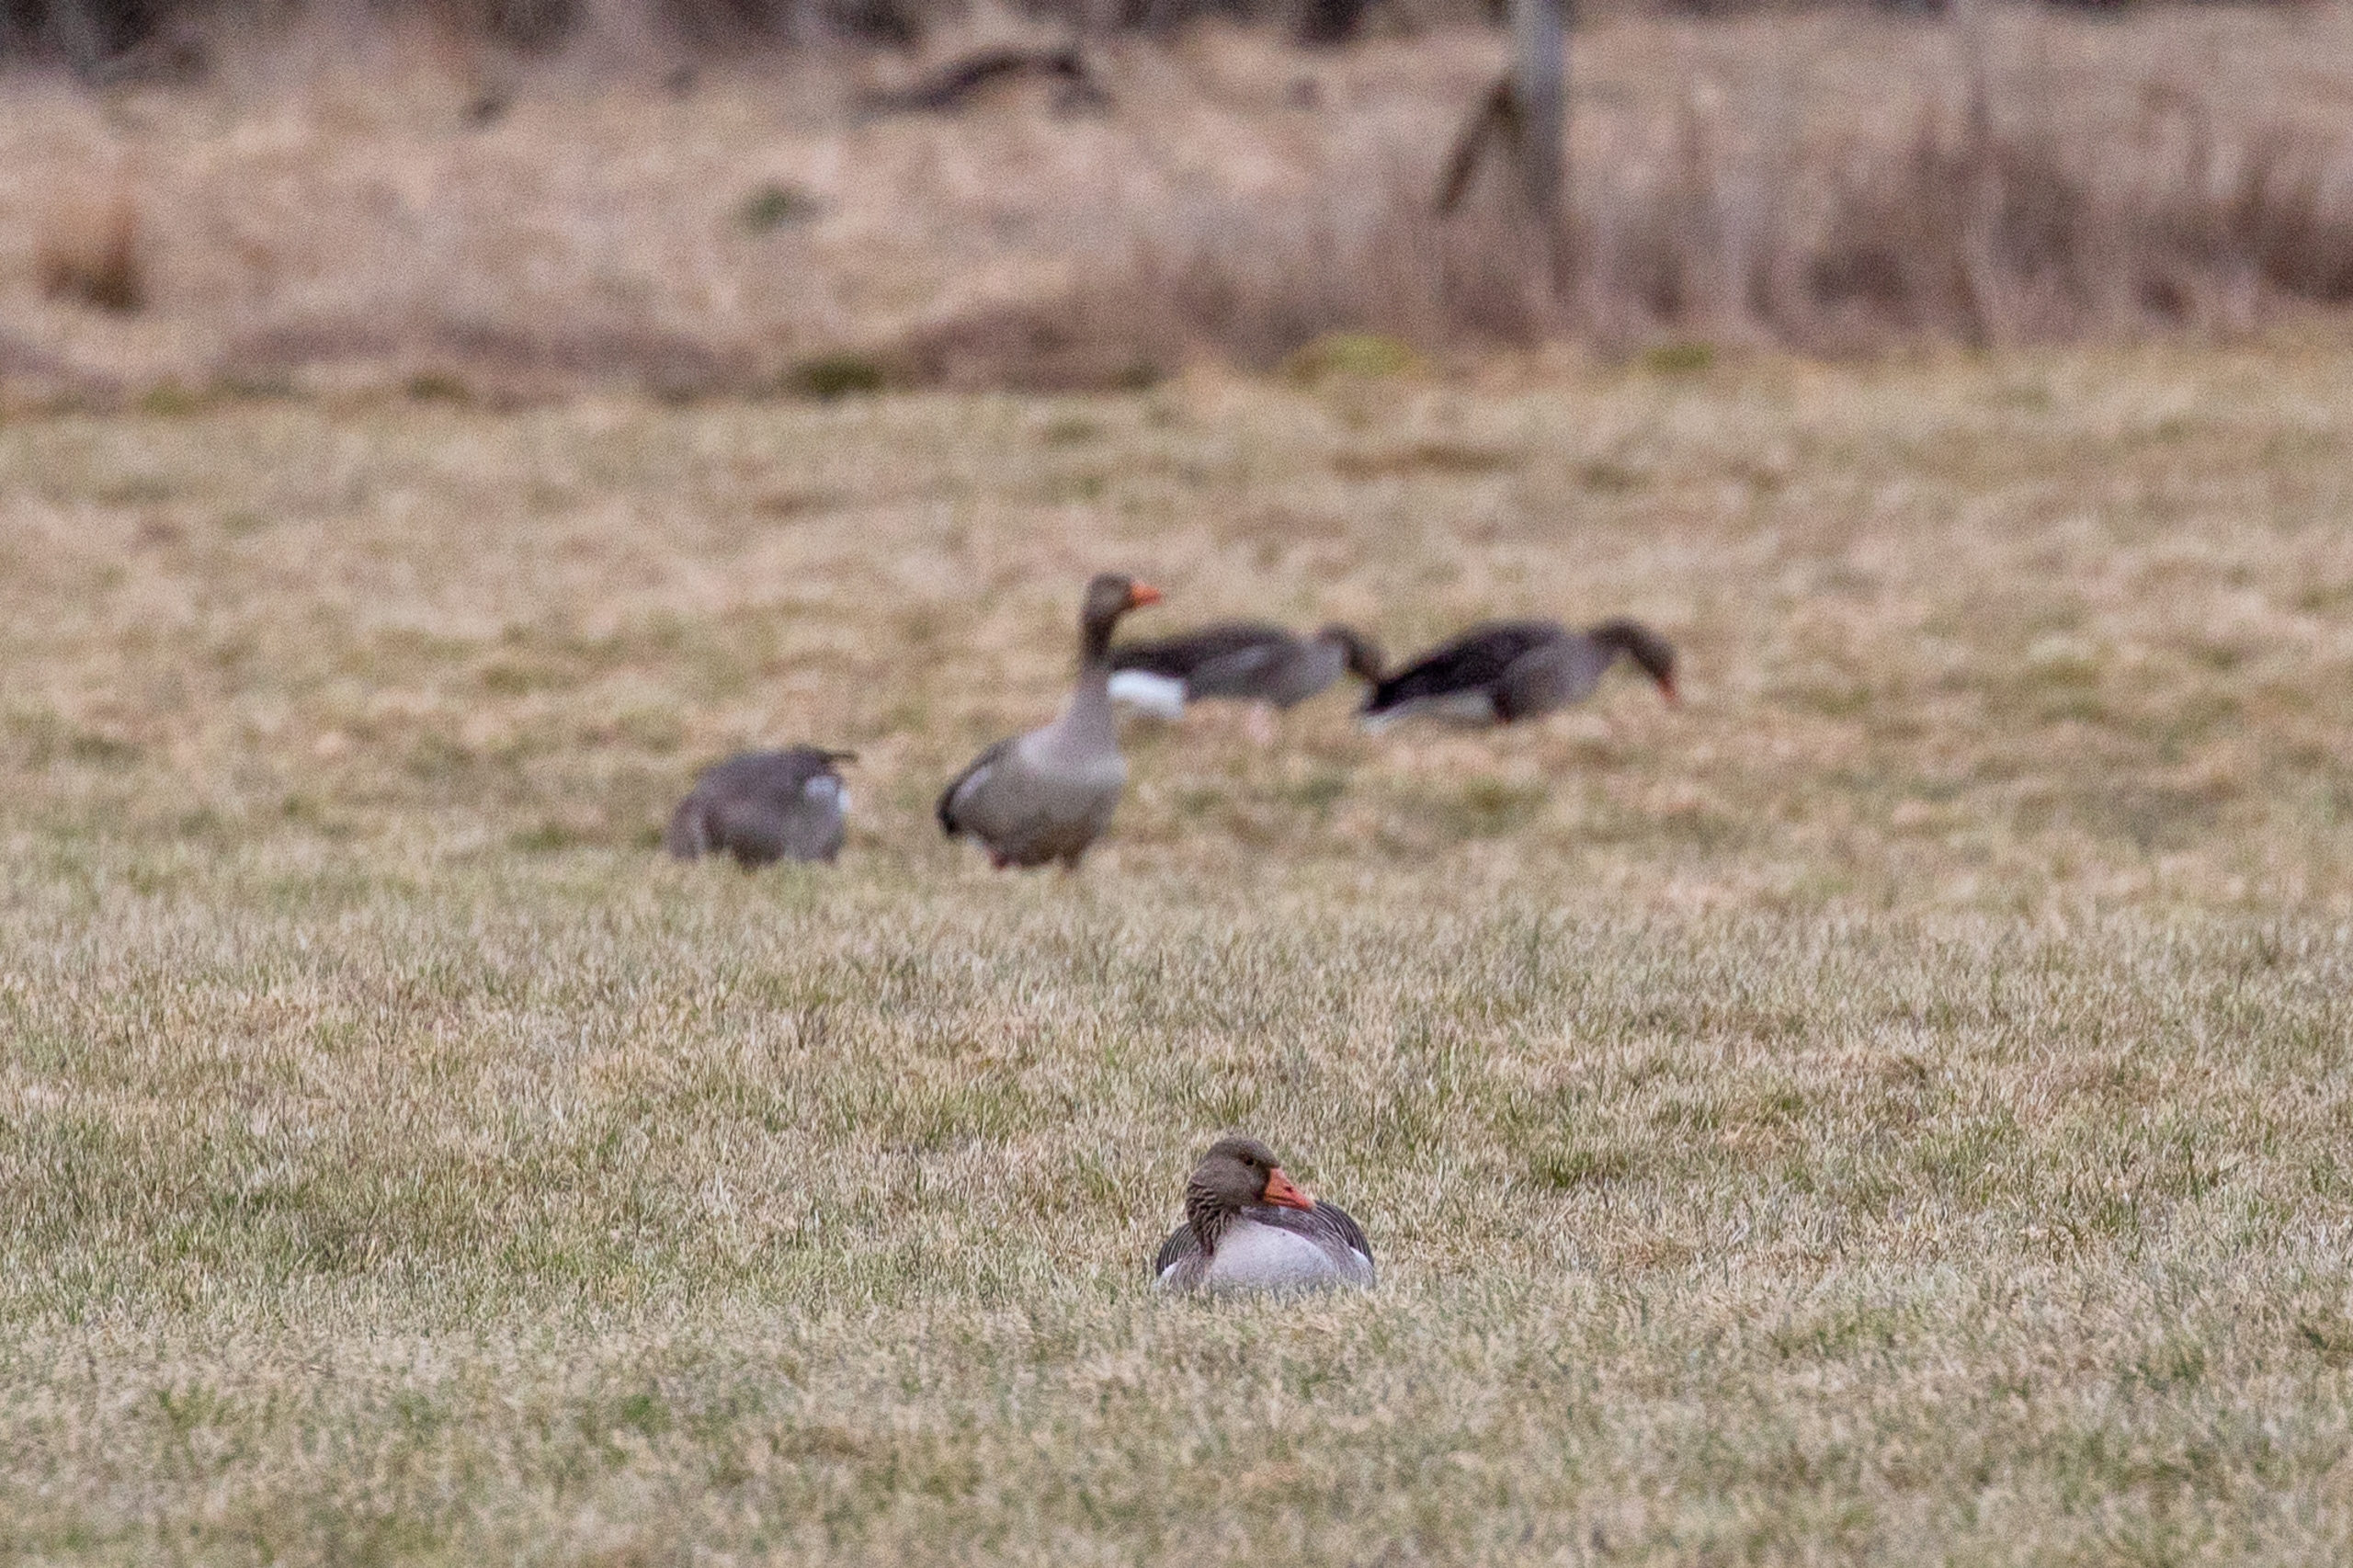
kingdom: Animalia
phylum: Chordata
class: Aves
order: Anseriformes
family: Anatidae
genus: Anser
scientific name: Anser anser
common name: Grågås
